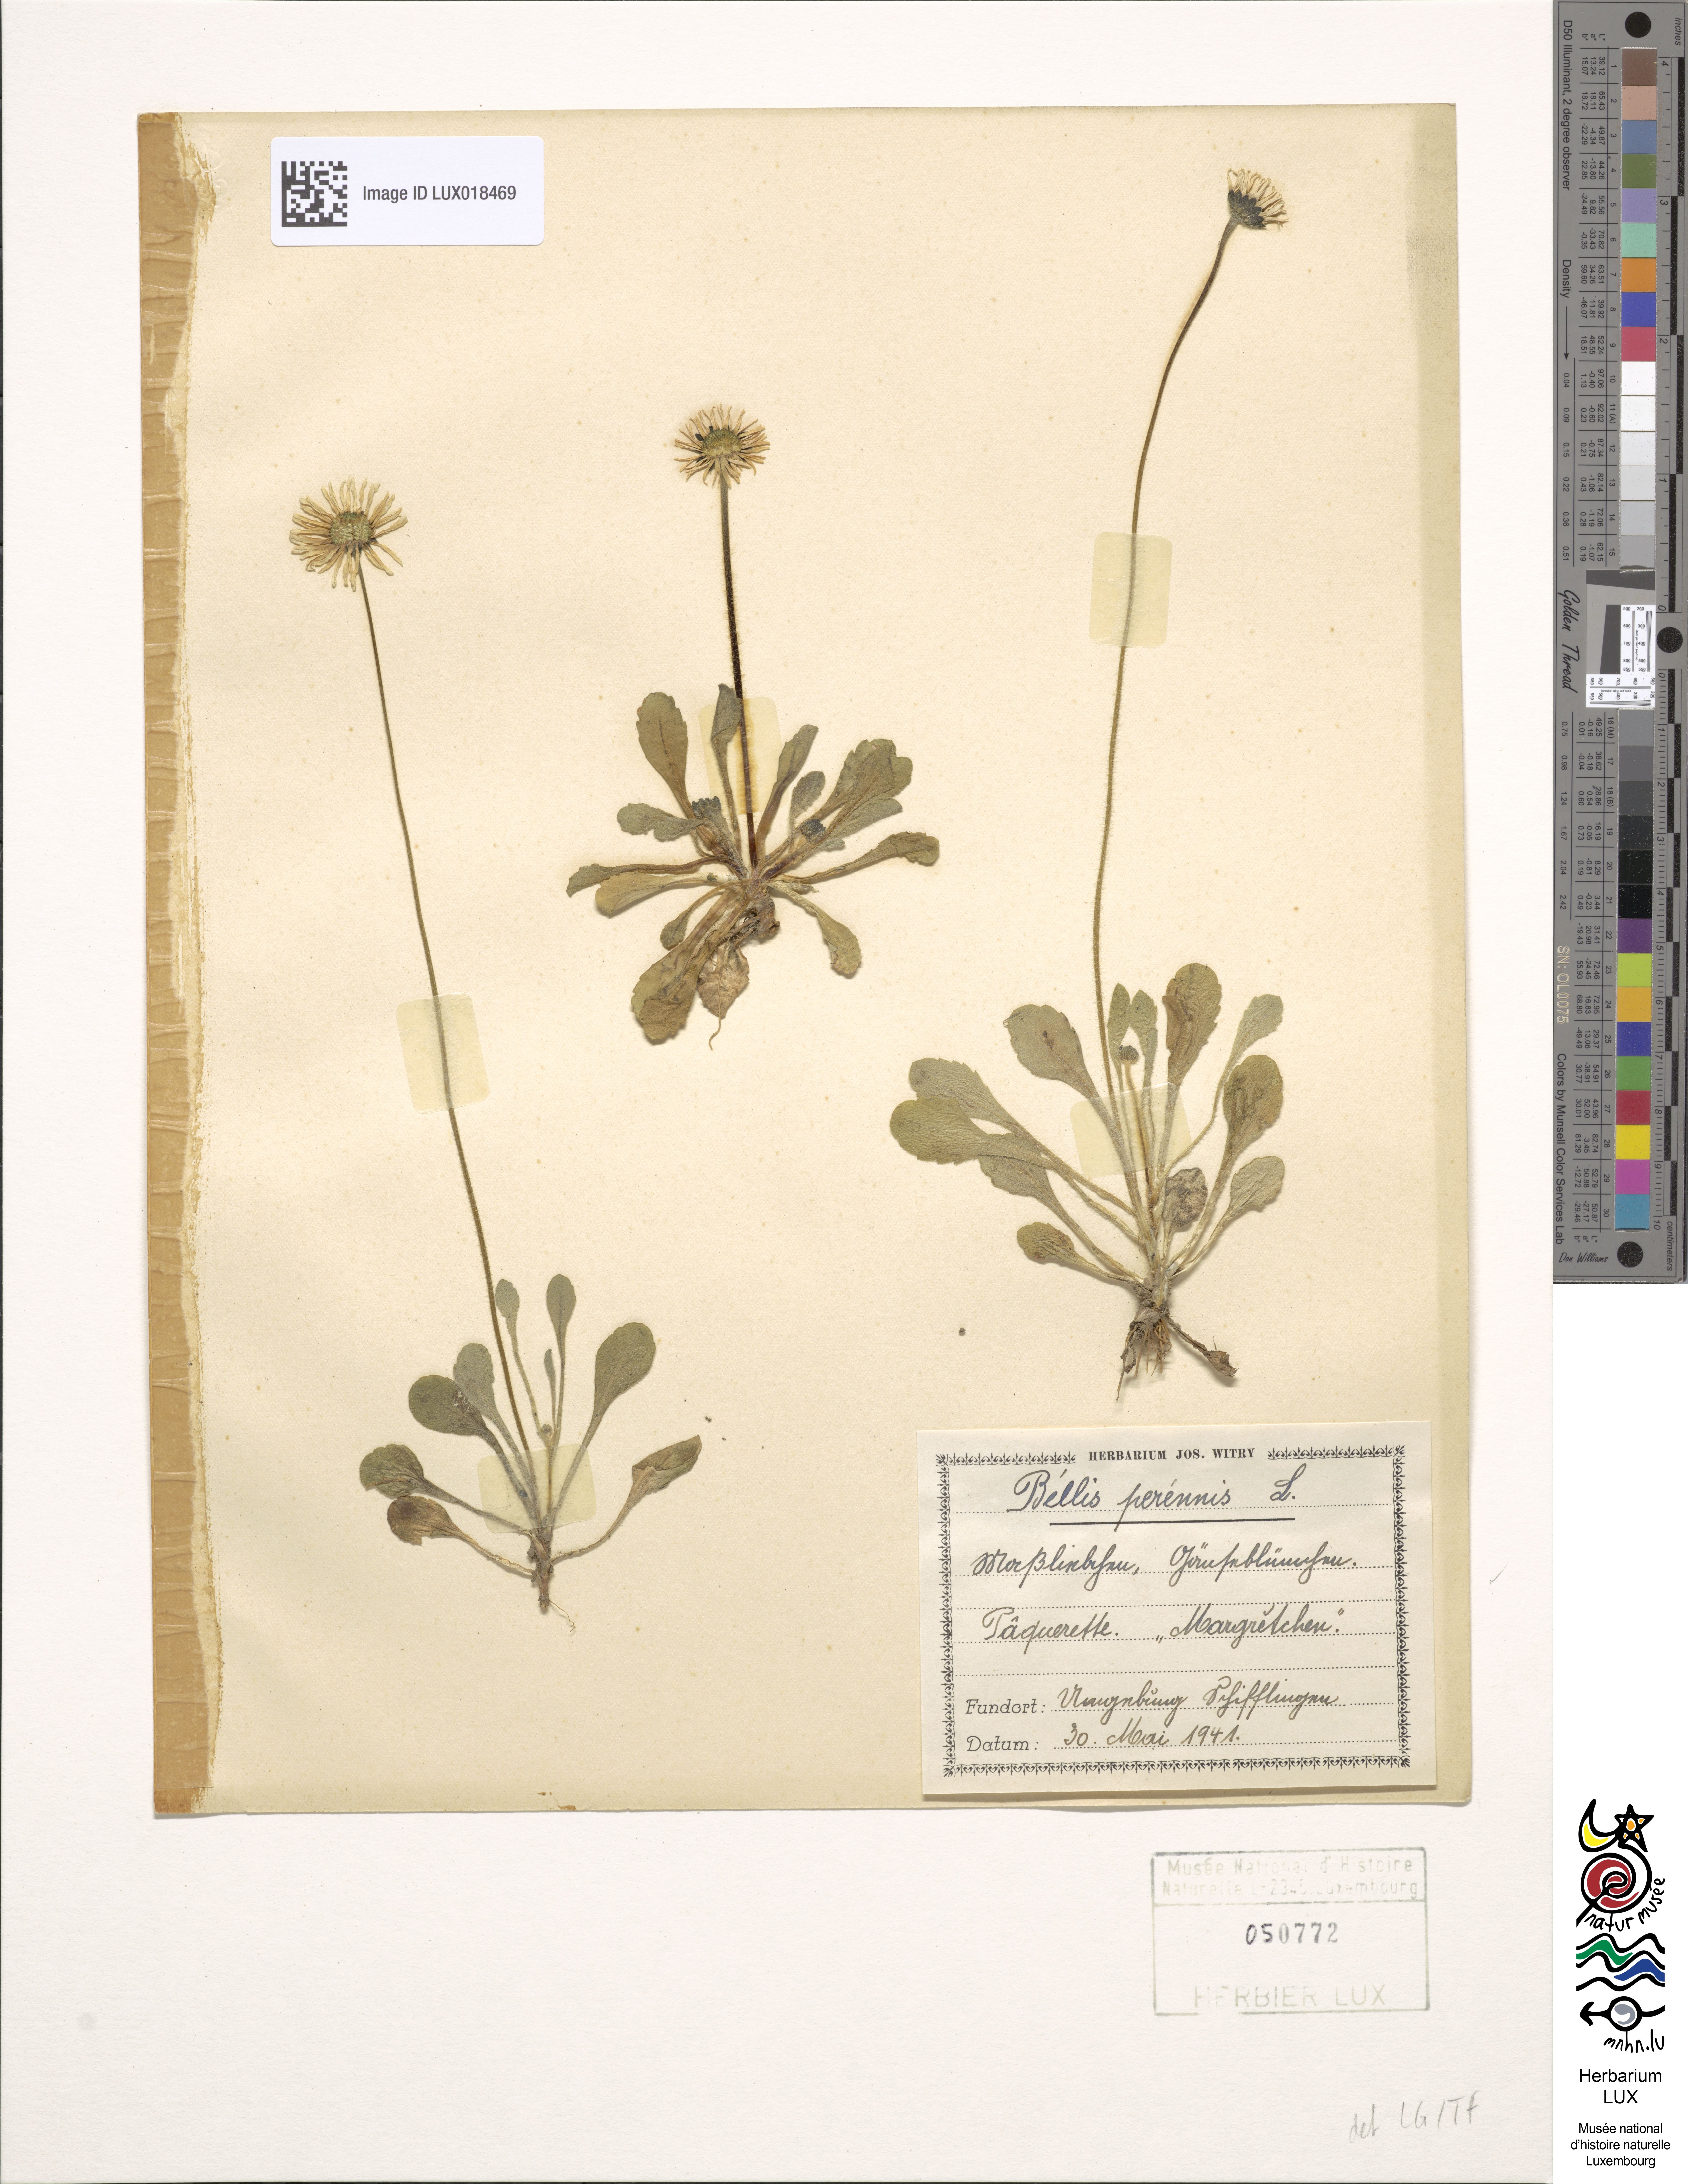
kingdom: Plantae
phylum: Tracheophyta
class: Magnoliopsida
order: Asterales
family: Asteraceae
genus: Bellis
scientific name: Bellis perennis
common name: Lawndaisy
